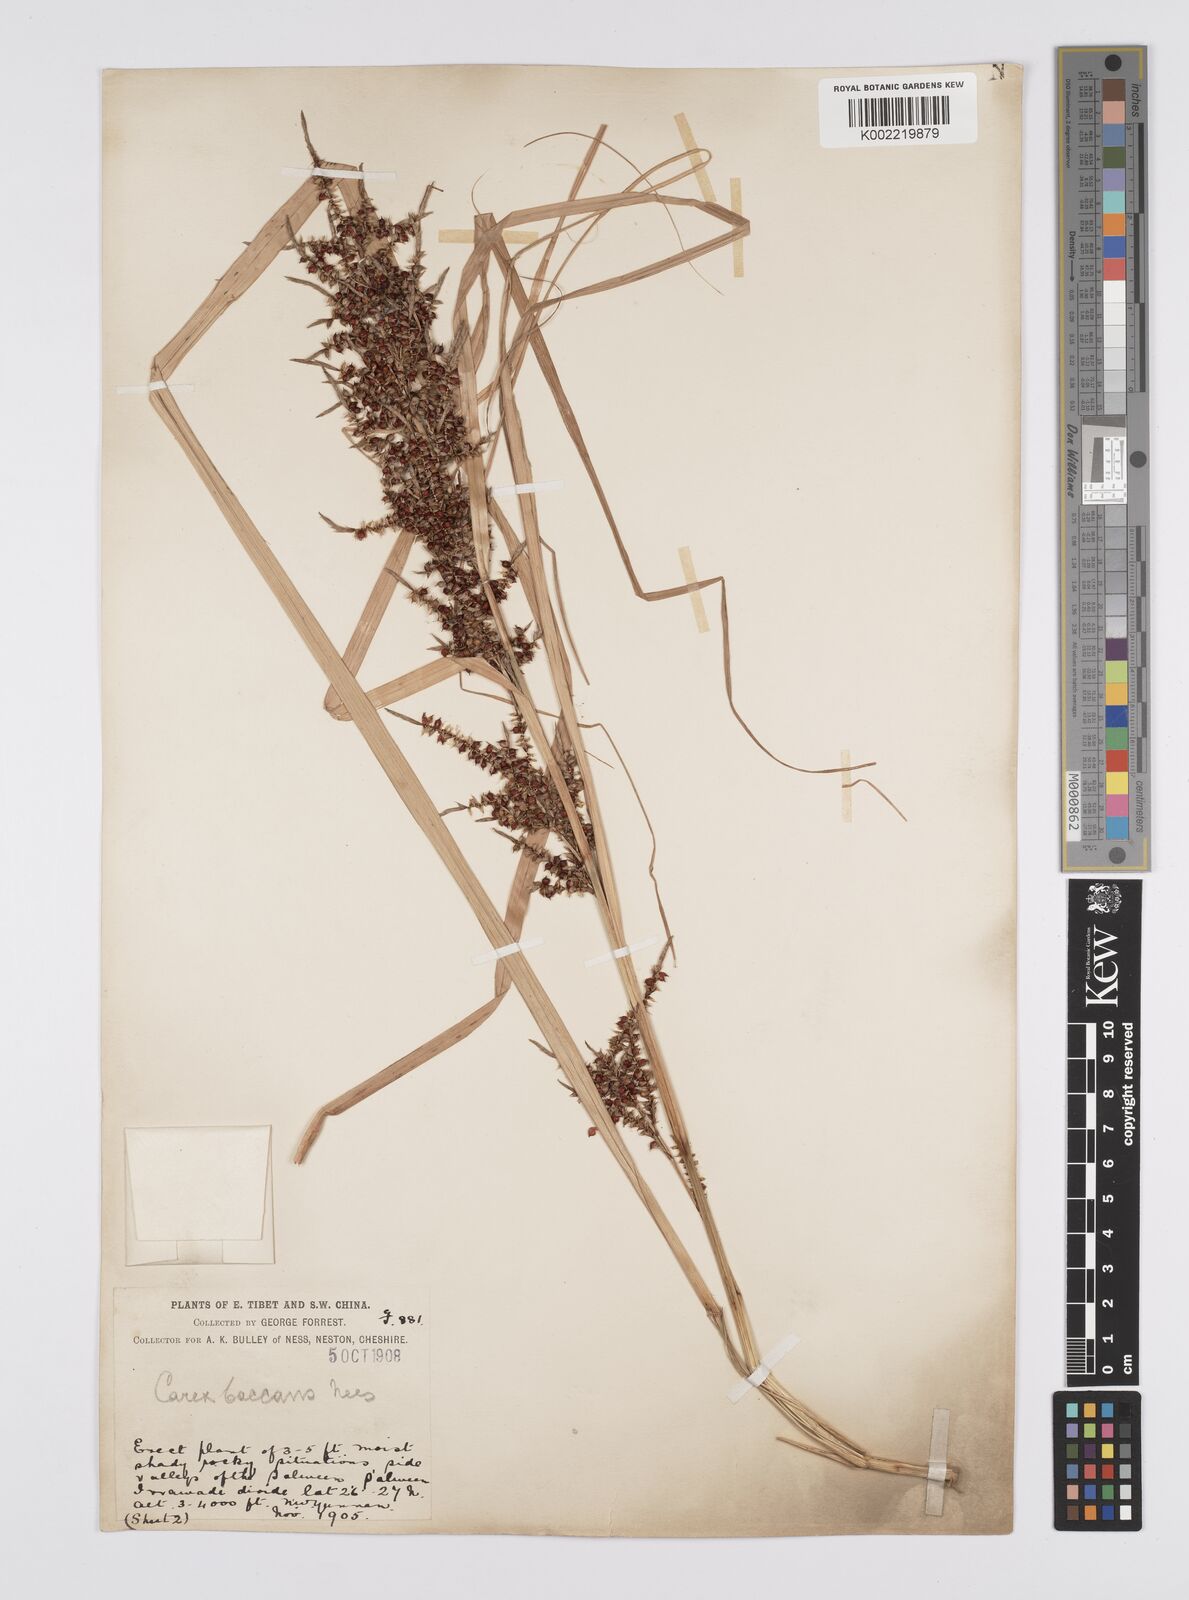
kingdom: Plantae
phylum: Tracheophyta
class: Liliopsida
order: Poales
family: Cyperaceae
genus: Carex
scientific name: Carex baccans
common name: Crimson seeded sedge
